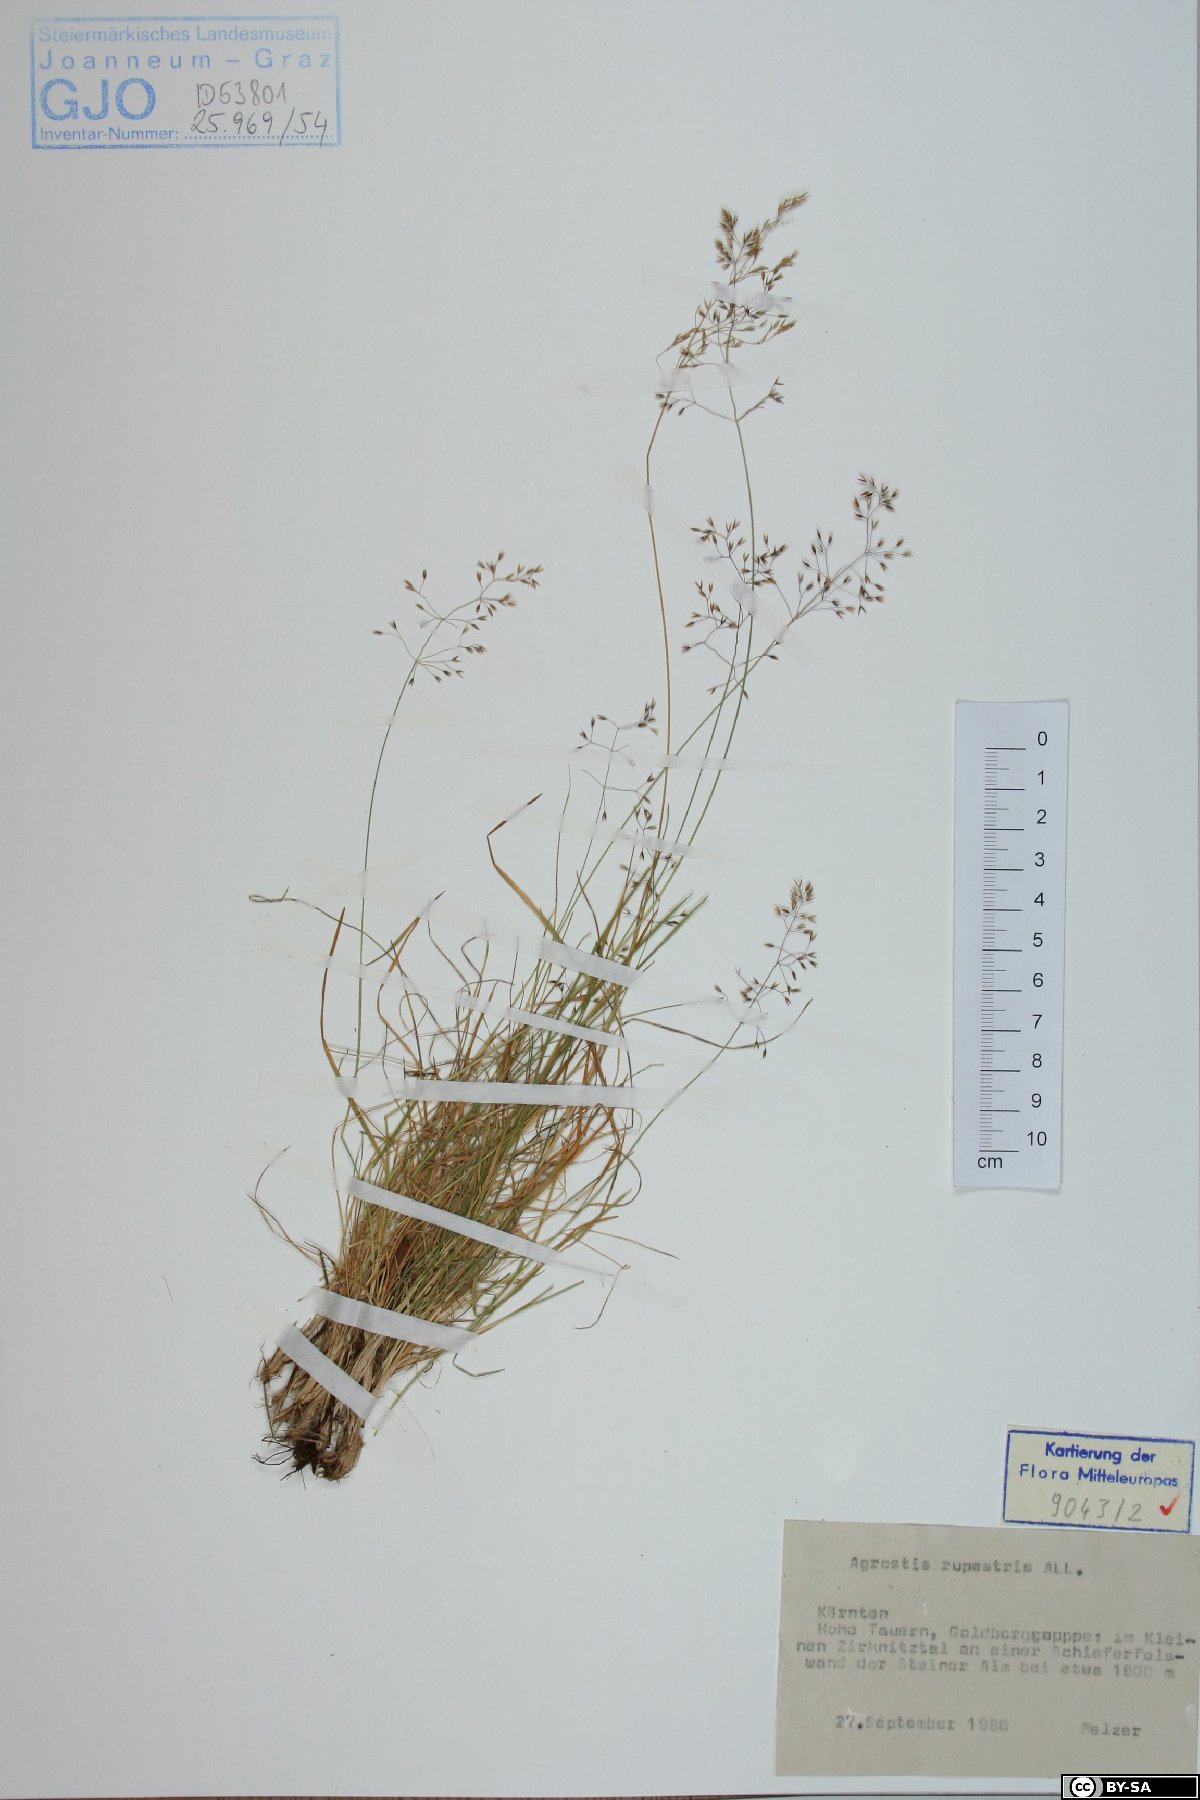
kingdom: Plantae
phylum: Tracheophyta
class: Liliopsida
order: Poales
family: Poaceae
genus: Agrostis
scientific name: Agrostis rupestris
